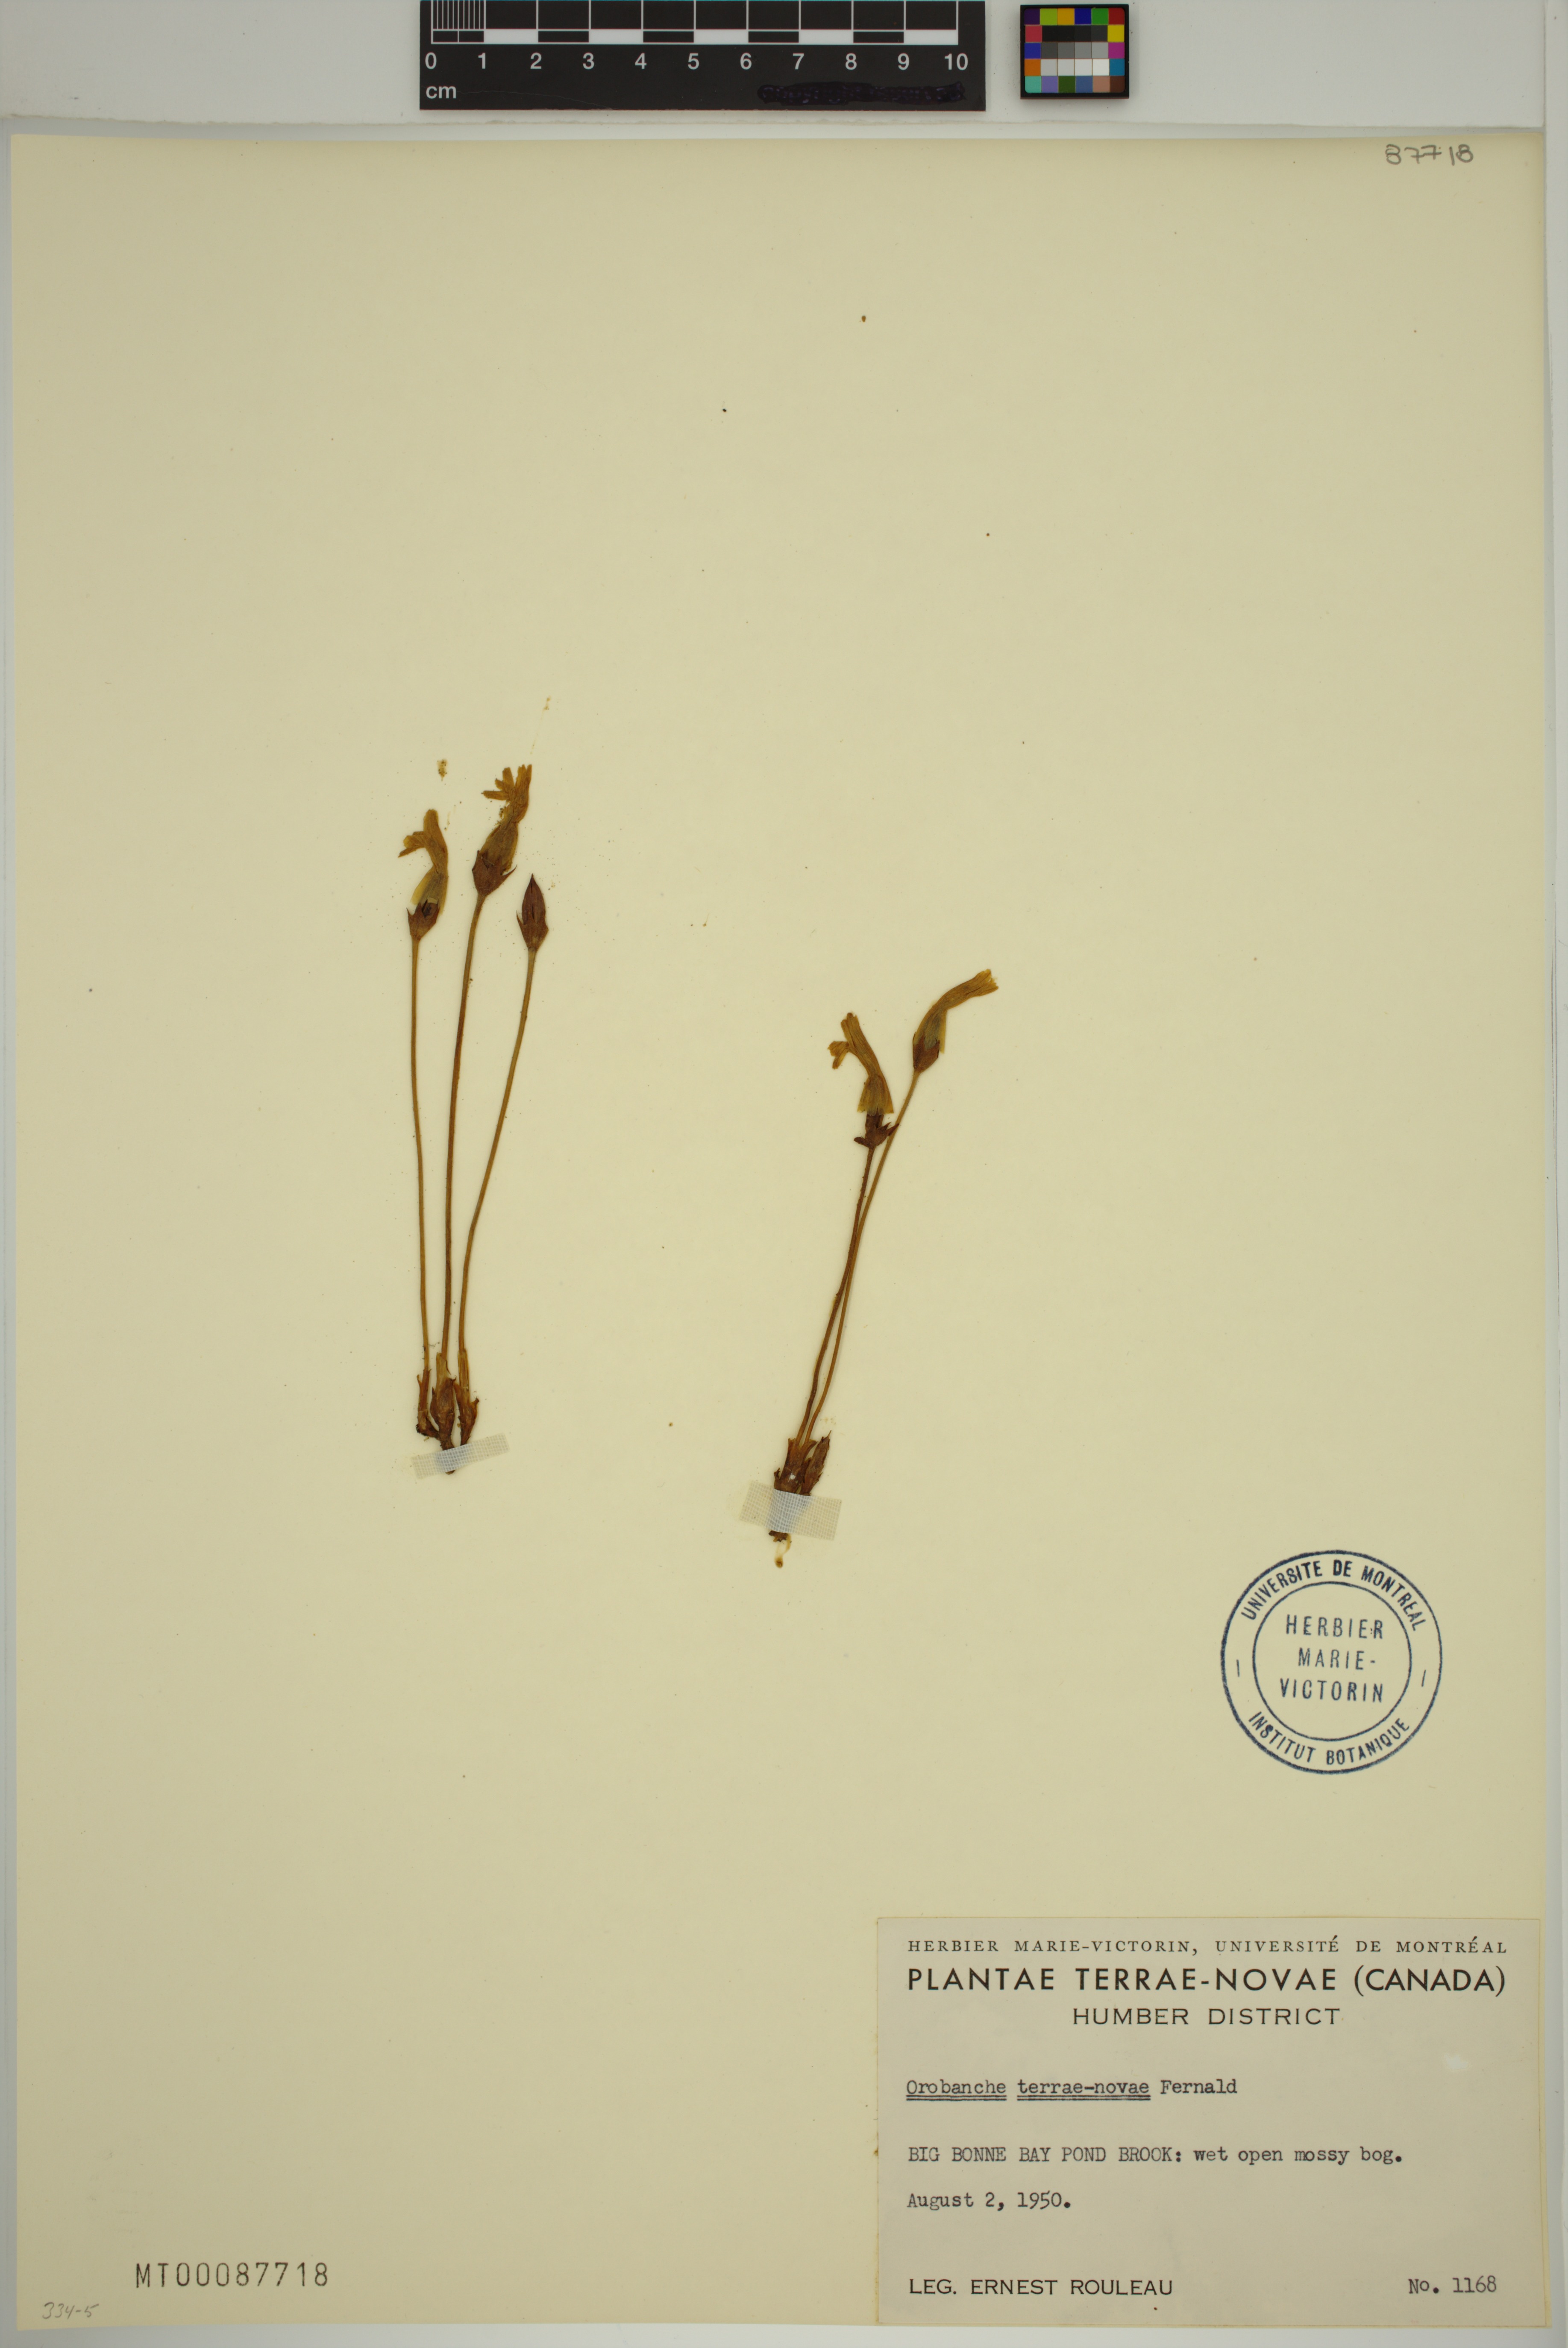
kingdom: Plantae
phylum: Tracheophyta
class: Magnoliopsida
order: Lamiales
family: Orobanchaceae
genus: Aphyllon
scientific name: Aphyllon uniflorum
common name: One-flowered broomrape
